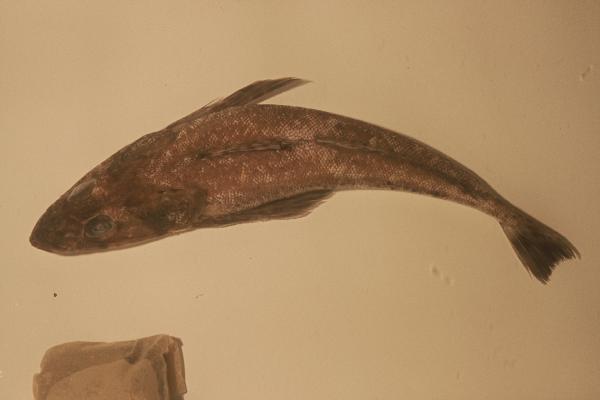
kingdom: Animalia
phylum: Chordata
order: Scorpaeniformes
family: Platycephalidae
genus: Platycephalus
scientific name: Platycephalus richardsoni
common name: Tiger flathead
